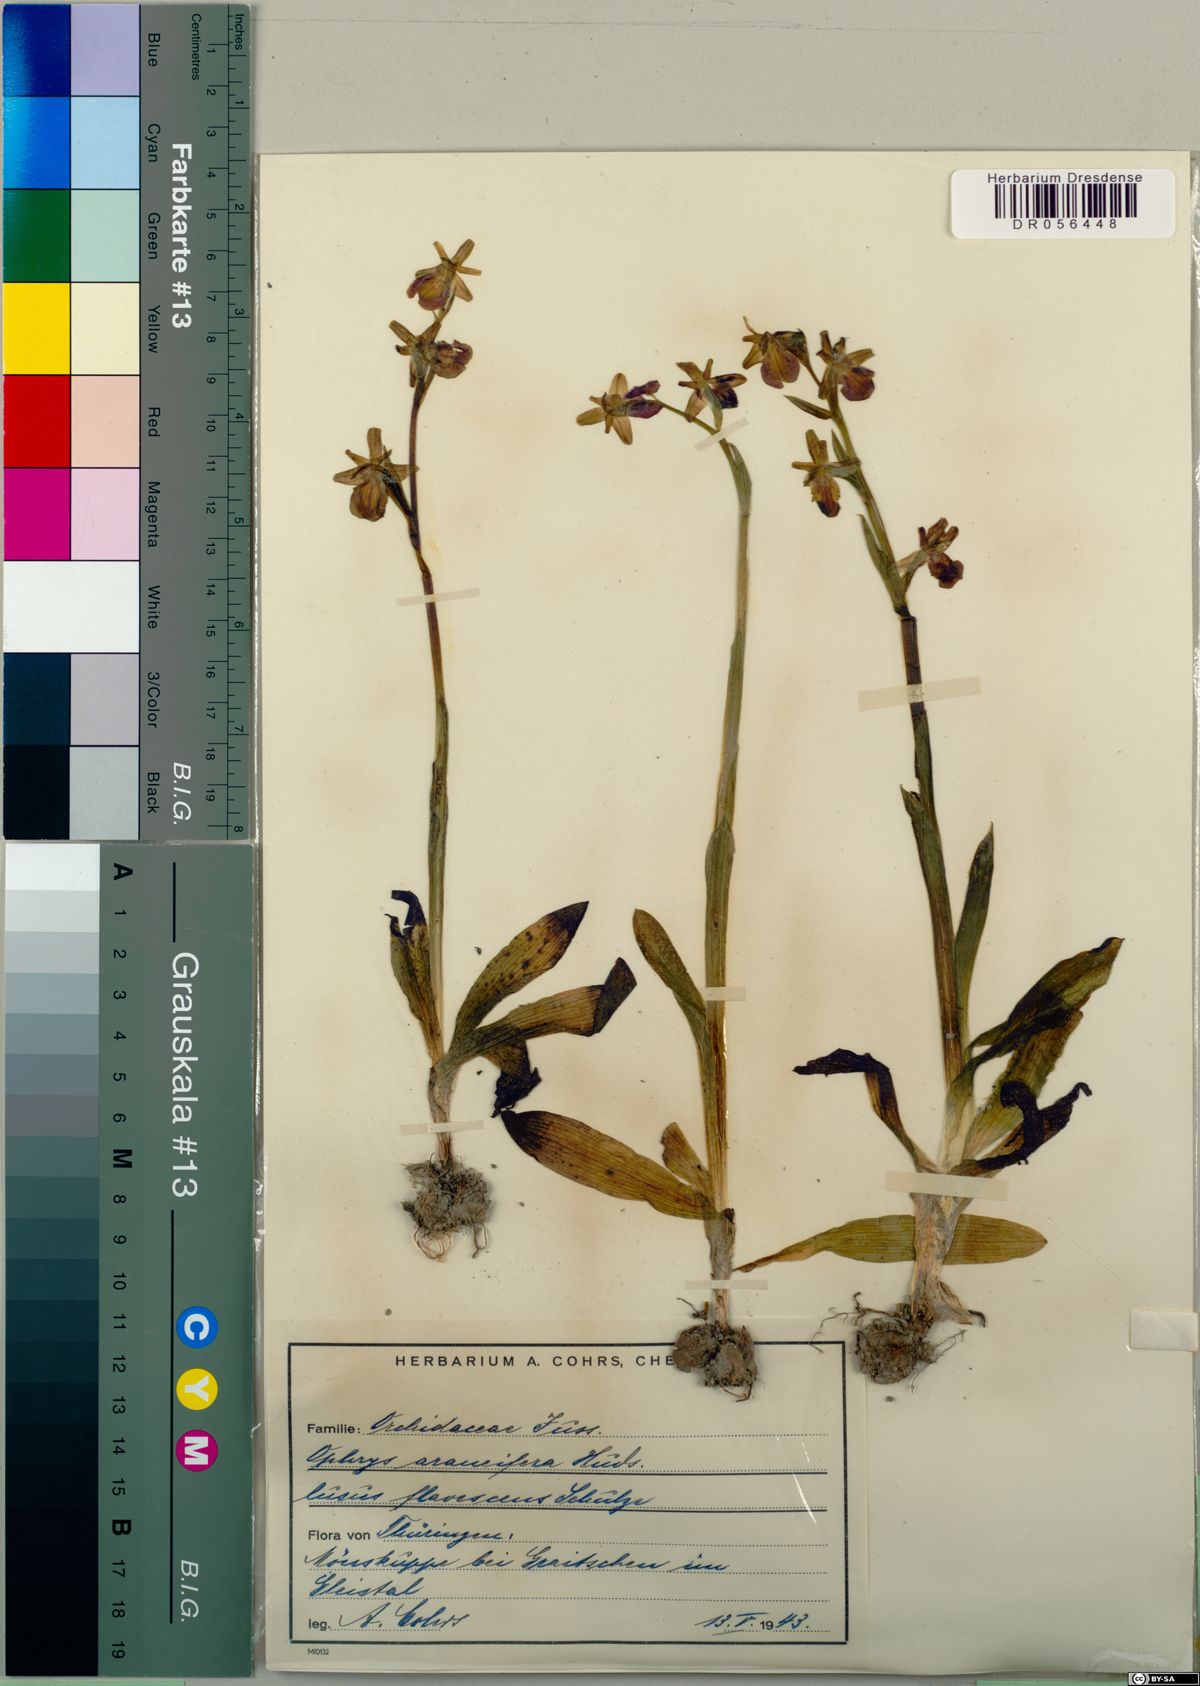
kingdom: Plantae
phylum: Tracheophyta
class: Liliopsida
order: Asparagales
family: Orchidaceae
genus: Ophrys
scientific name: Ophrys sphegodes
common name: Early spider-orchid
